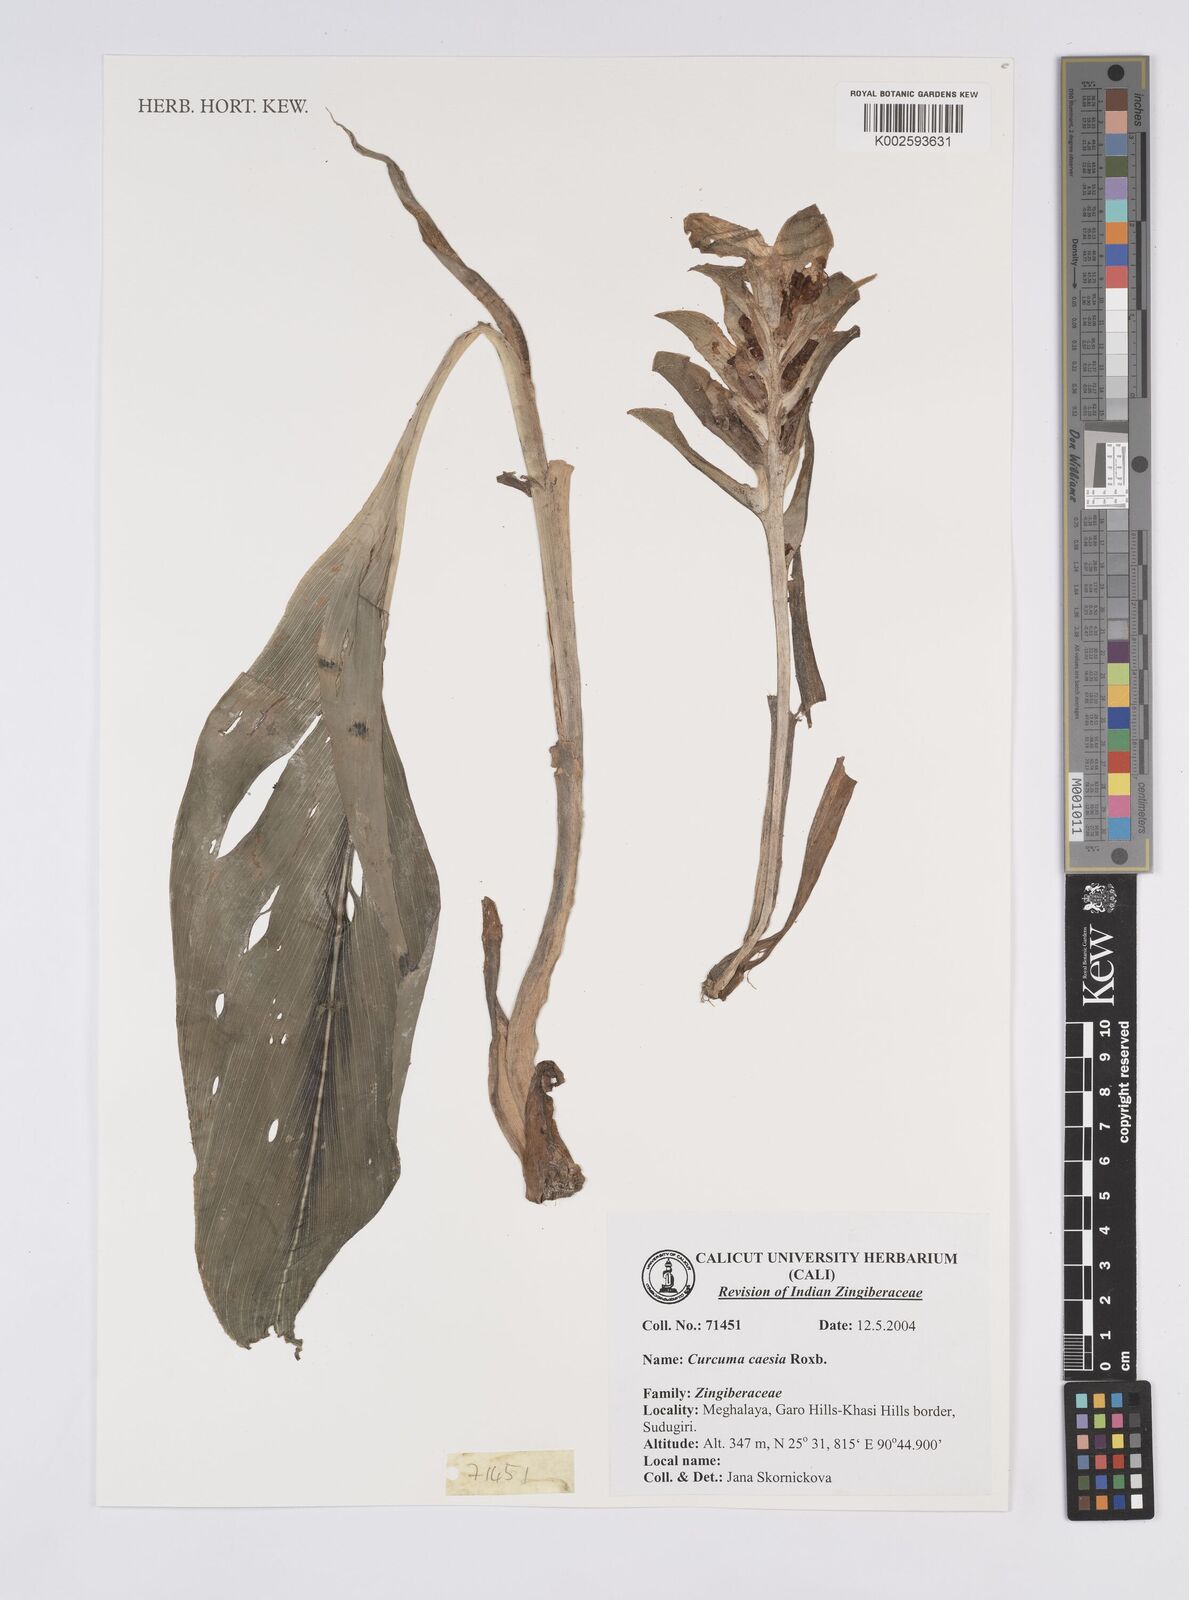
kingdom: Plantae
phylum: Tracheophyta
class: Liliopsida
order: Zingiberales
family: Zingiberaceae
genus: Curcuma
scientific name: Curcuma caesia
